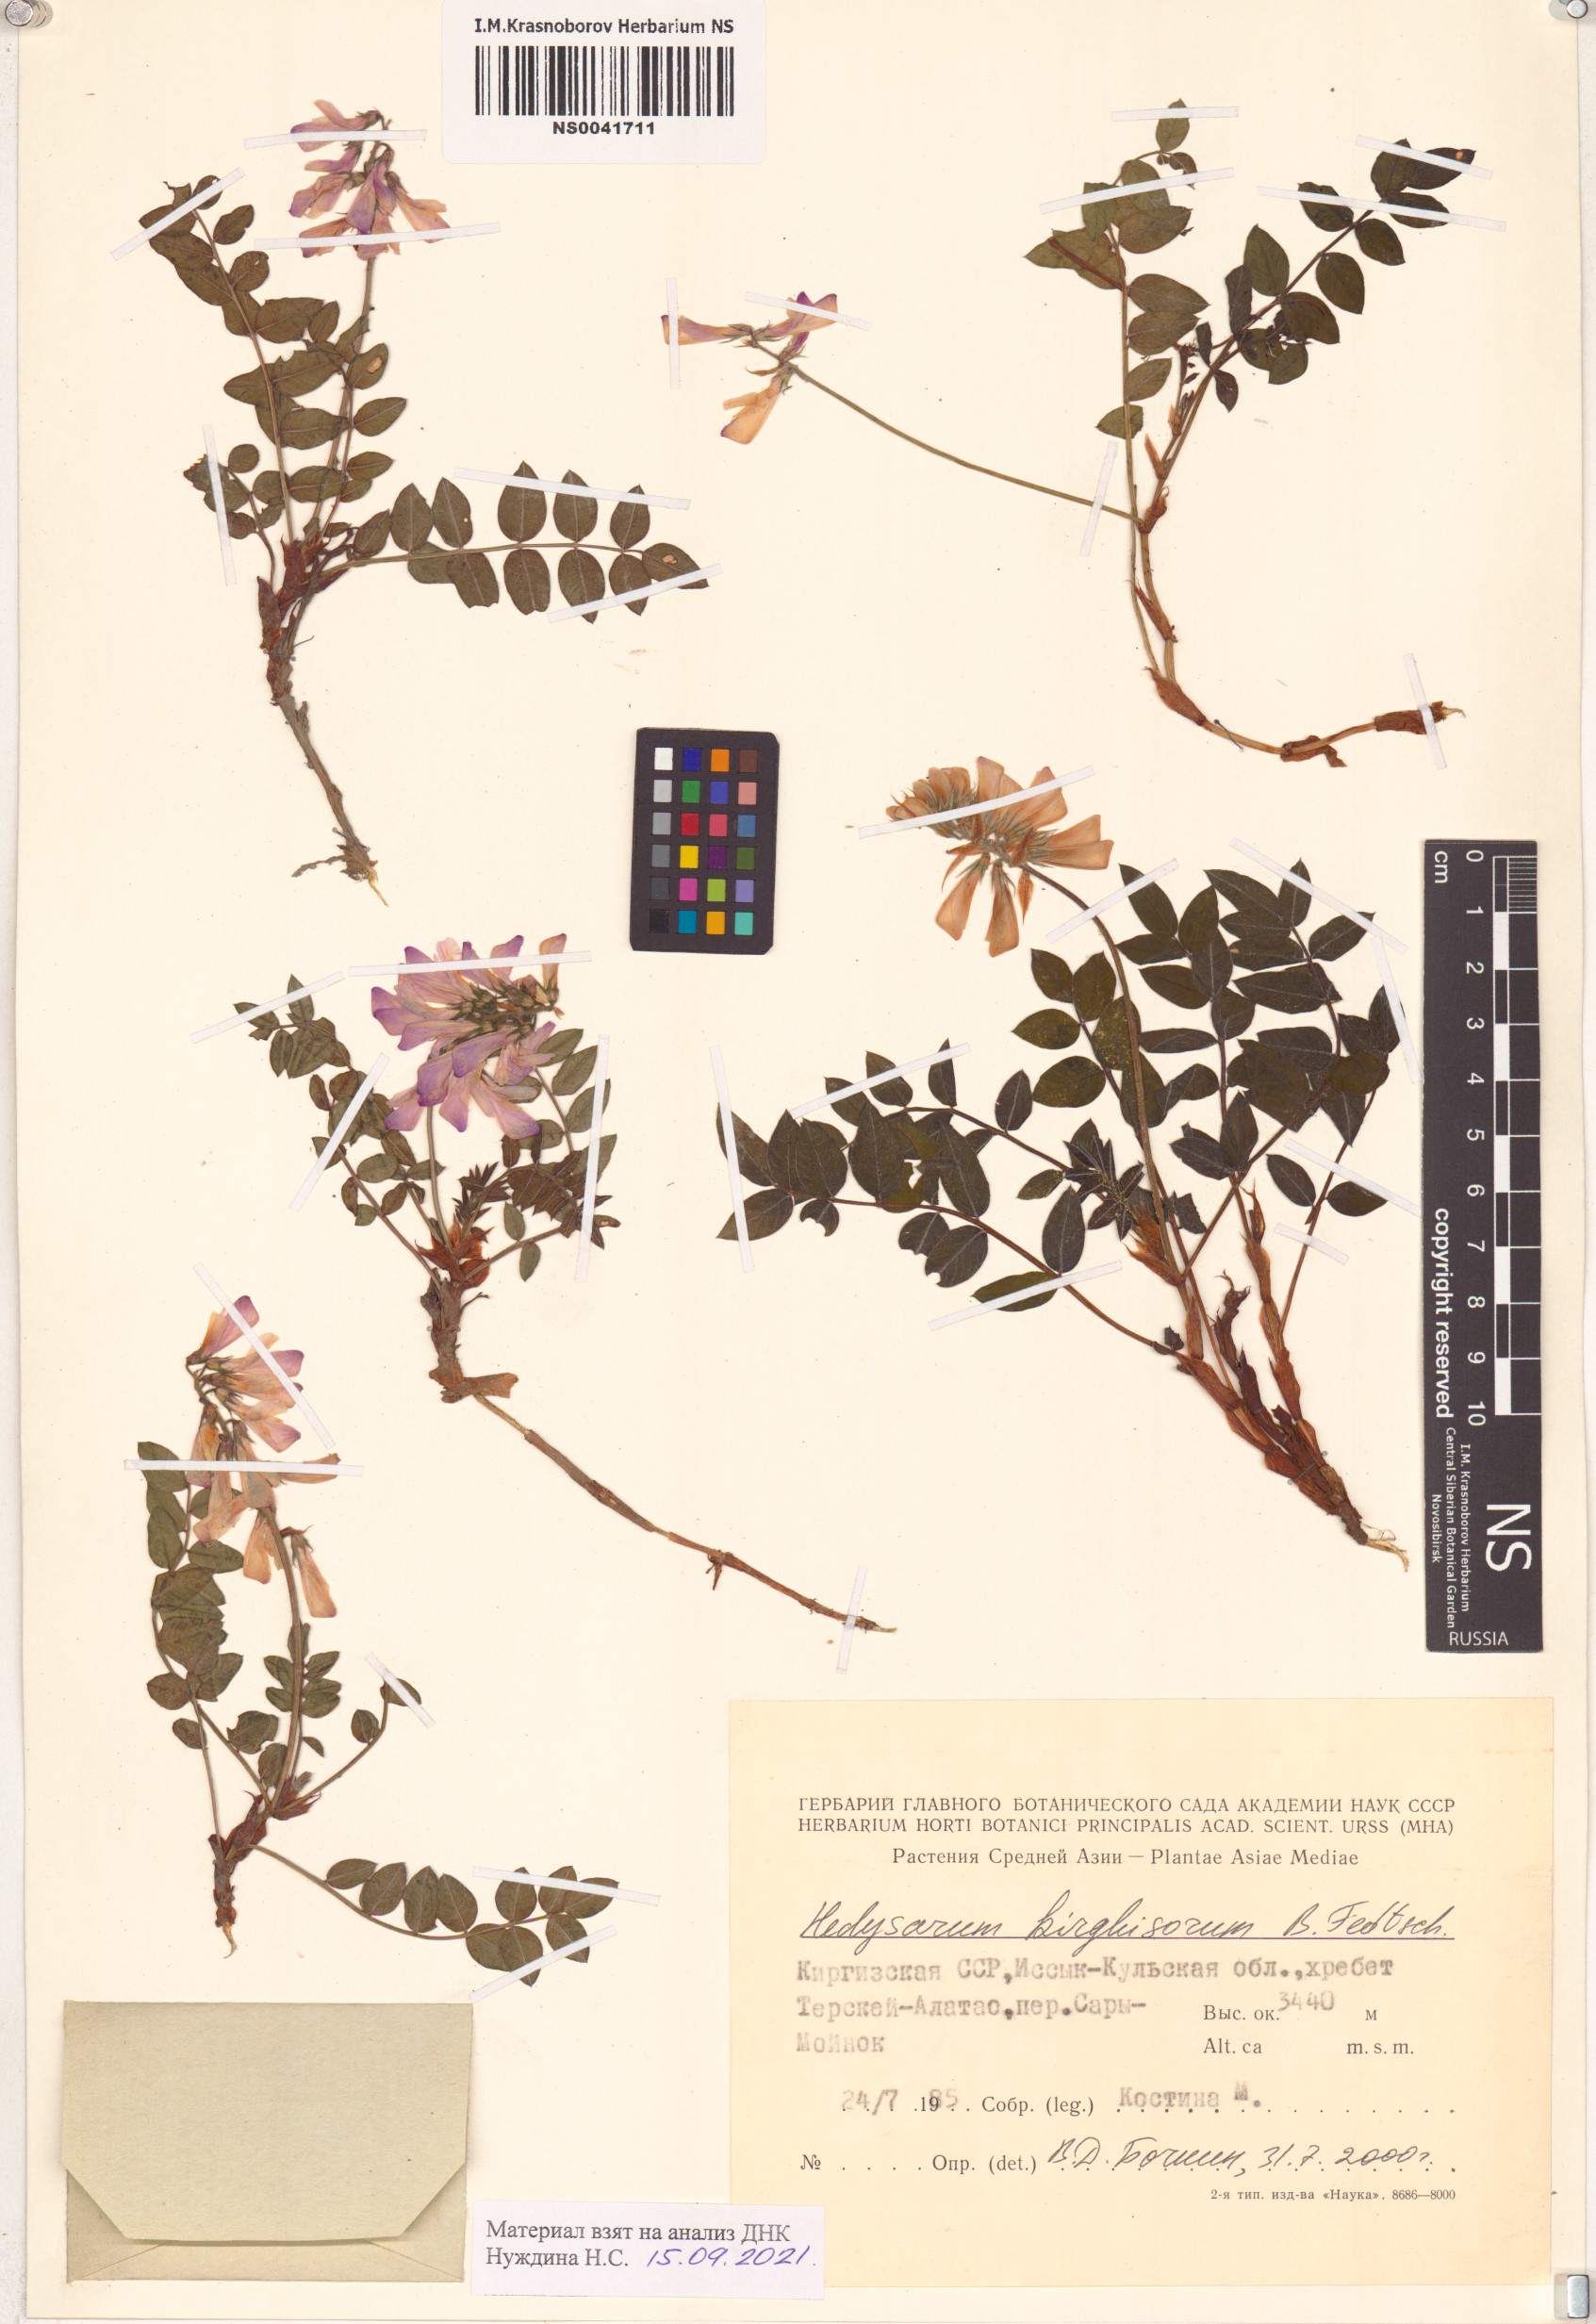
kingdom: Plantae
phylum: Tracheophyta
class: Magnoliopsida
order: Fabales
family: Fabaceae
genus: Hedysarum
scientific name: Hedysarum kirghisorum
